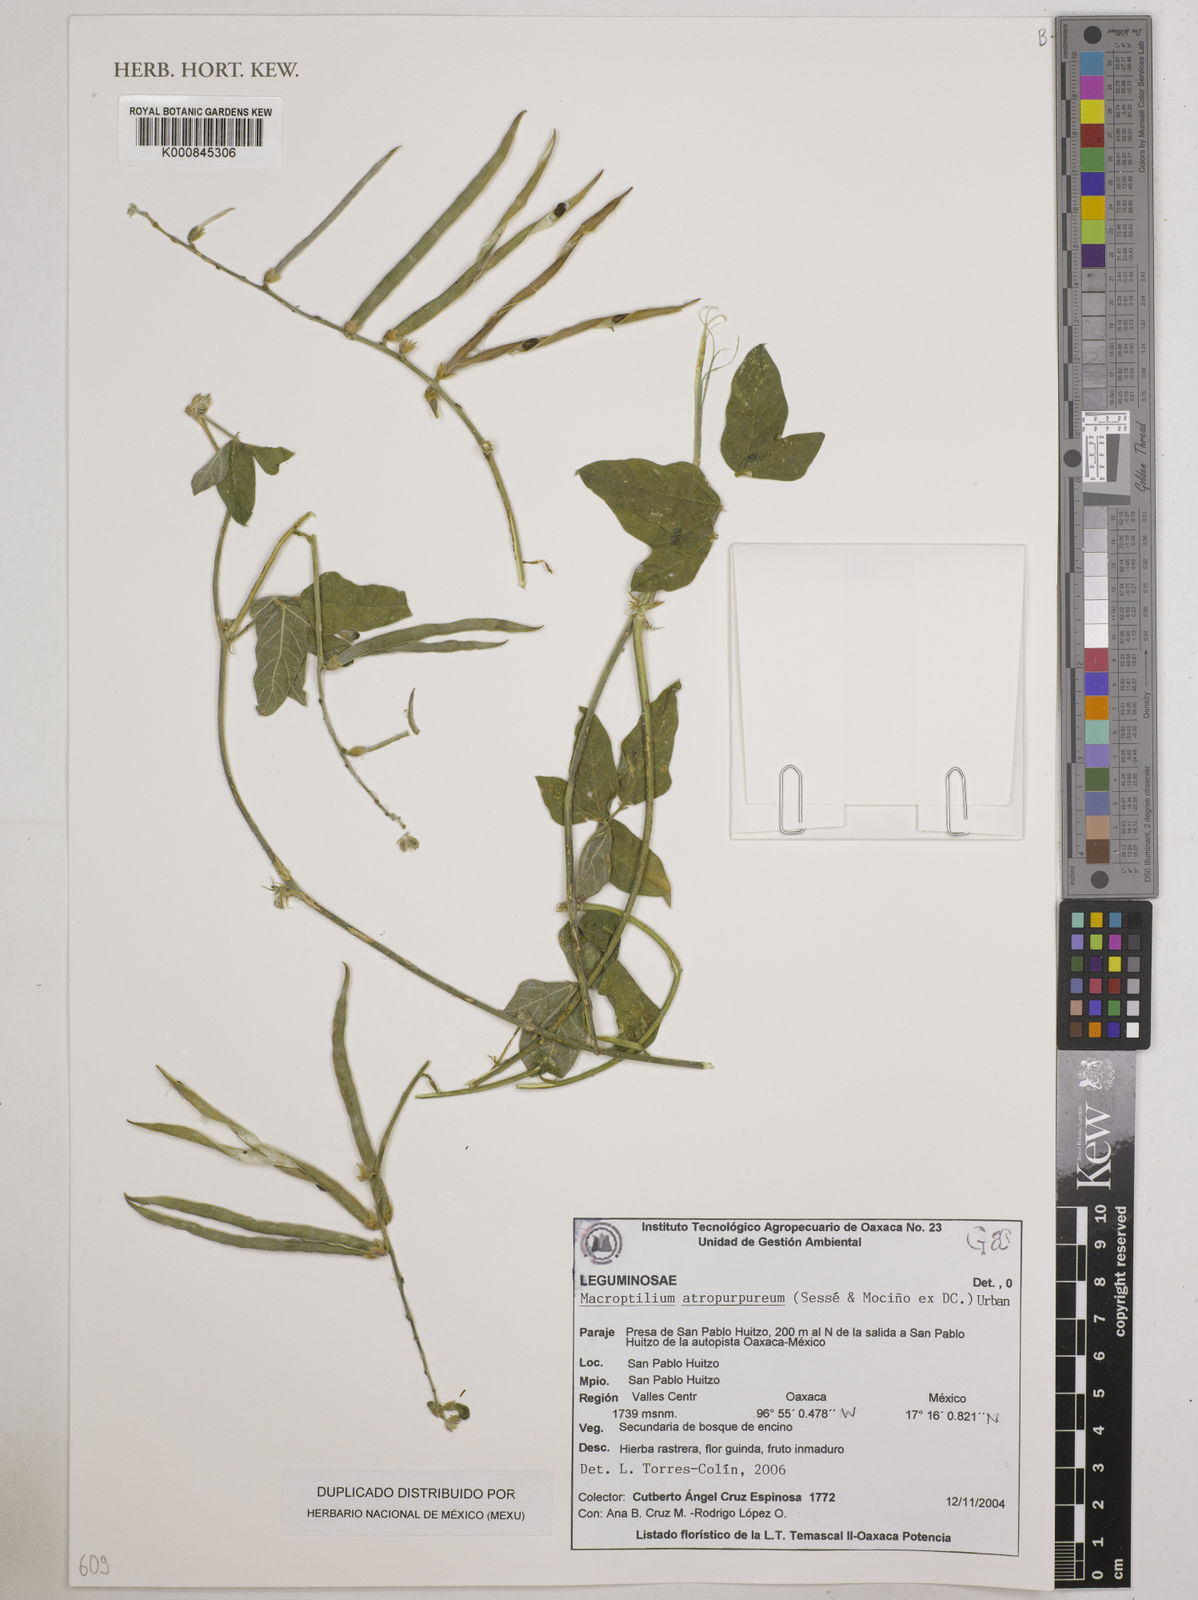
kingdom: Plantae
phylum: Tracheophyta
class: Magnoliopsida
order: Fabales
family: Fabaceae
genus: Macroptilium
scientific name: Macroptilium atropurpureum
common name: Purple bushbean
